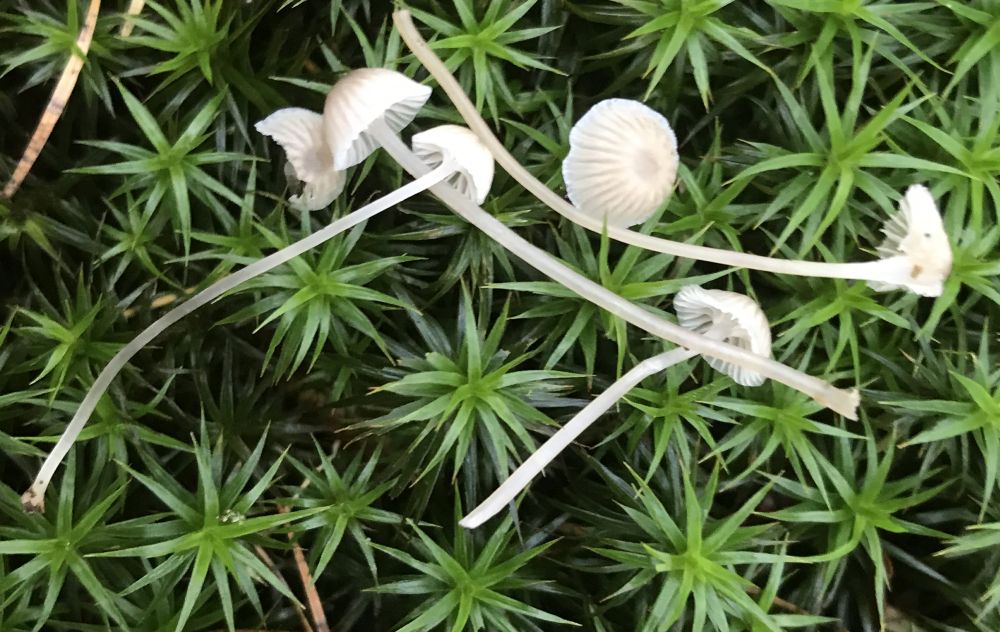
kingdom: Fungi
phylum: Basidiomycota
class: Agaricomycetes
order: Agaricales
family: Mycenaceae
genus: Mycena
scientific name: Mycena cinerella
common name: mel-huesvamp
